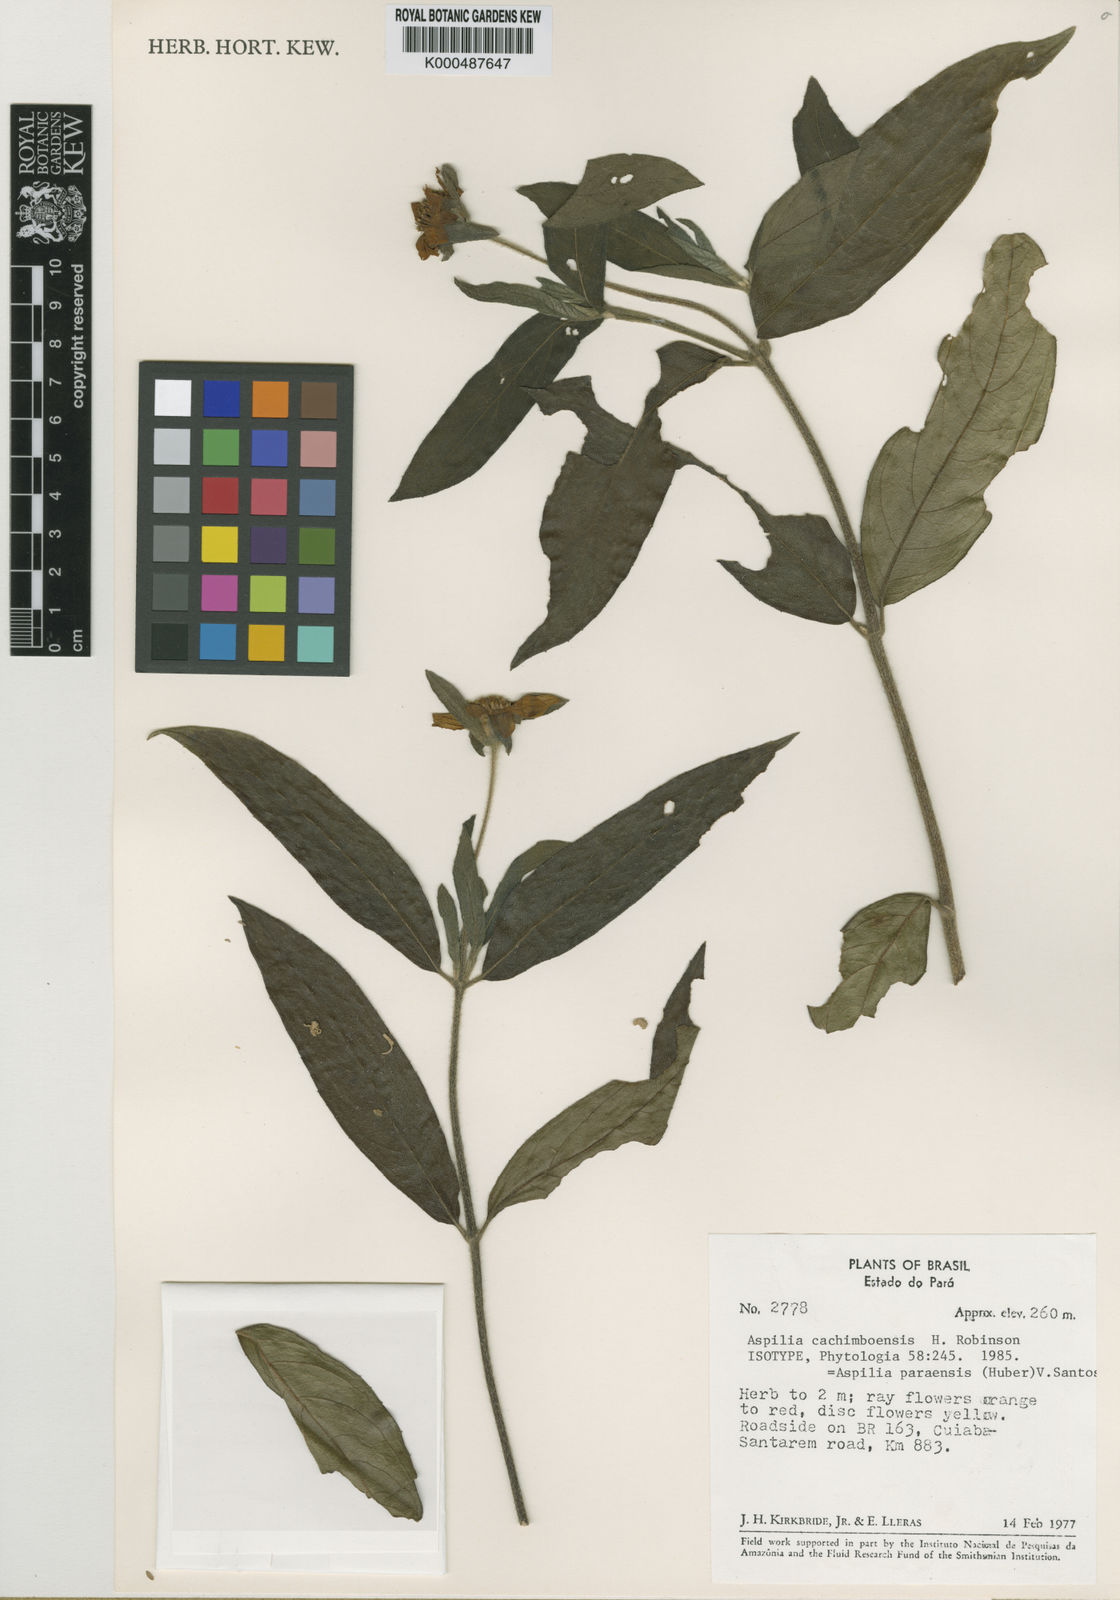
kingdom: Plantae
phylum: Tracheophyta
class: Magnoliopsida
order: Asterales
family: Asteraceae
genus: Wedelia
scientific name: Wedelia cachimboensis
